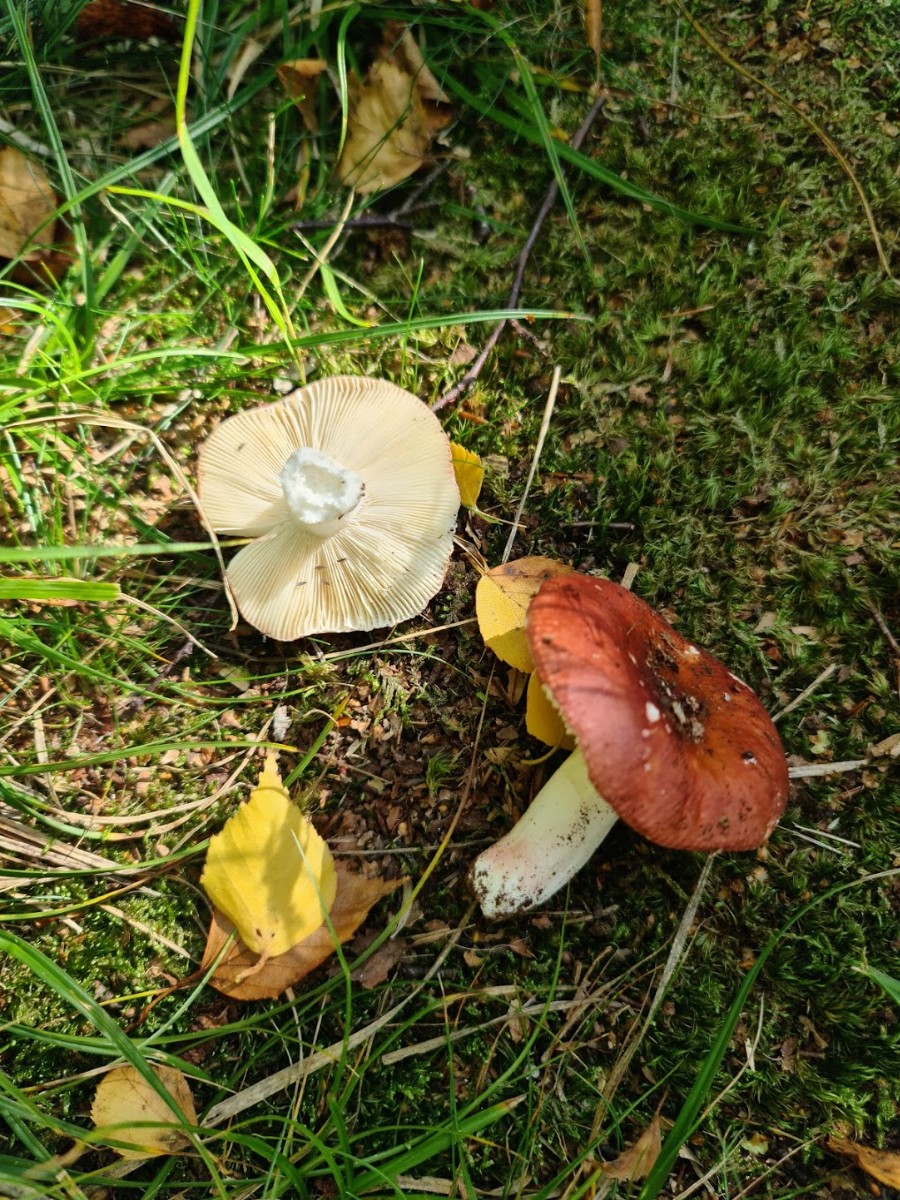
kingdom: Fungi
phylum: Basidiomycota
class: Agaricomycetes
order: Russulales
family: Russulaceae
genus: Russula
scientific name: Russula
